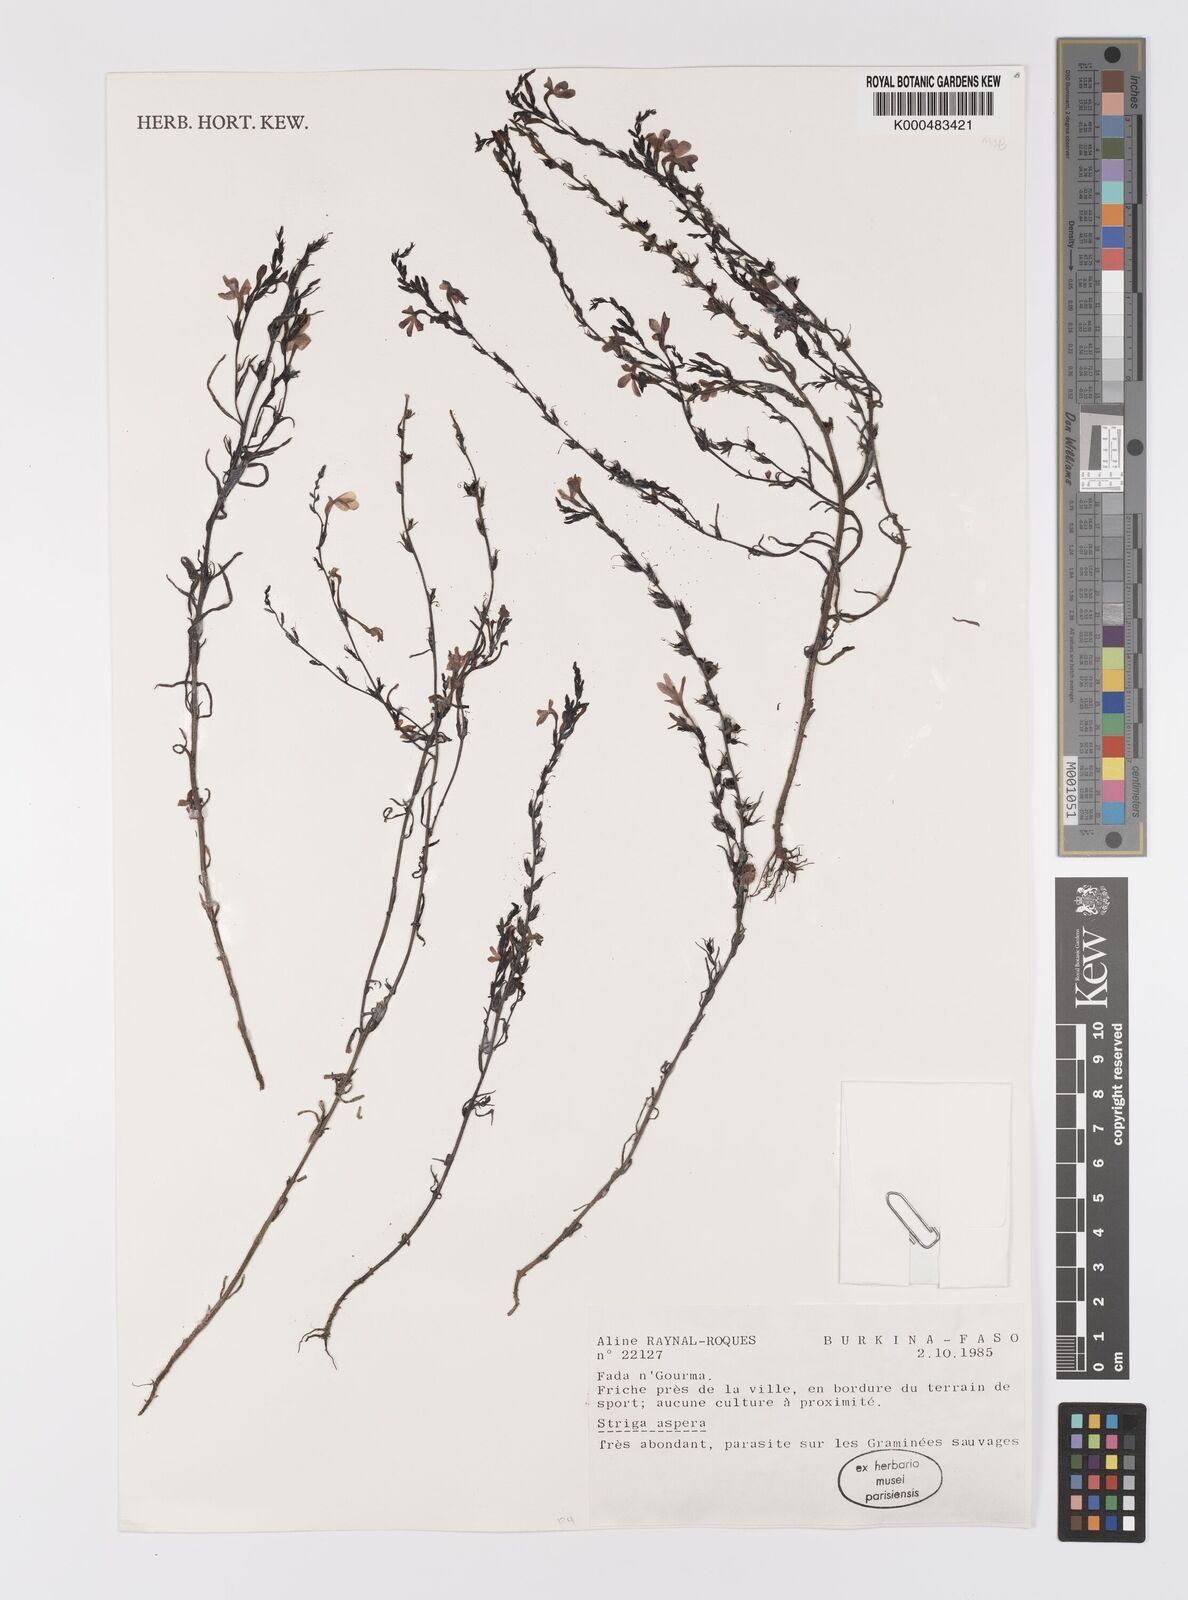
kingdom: Plantae
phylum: Tracheophyta
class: Magnoliopsida
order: Lamiales
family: Orobanchaceae
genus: Striga
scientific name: Striga aspera
